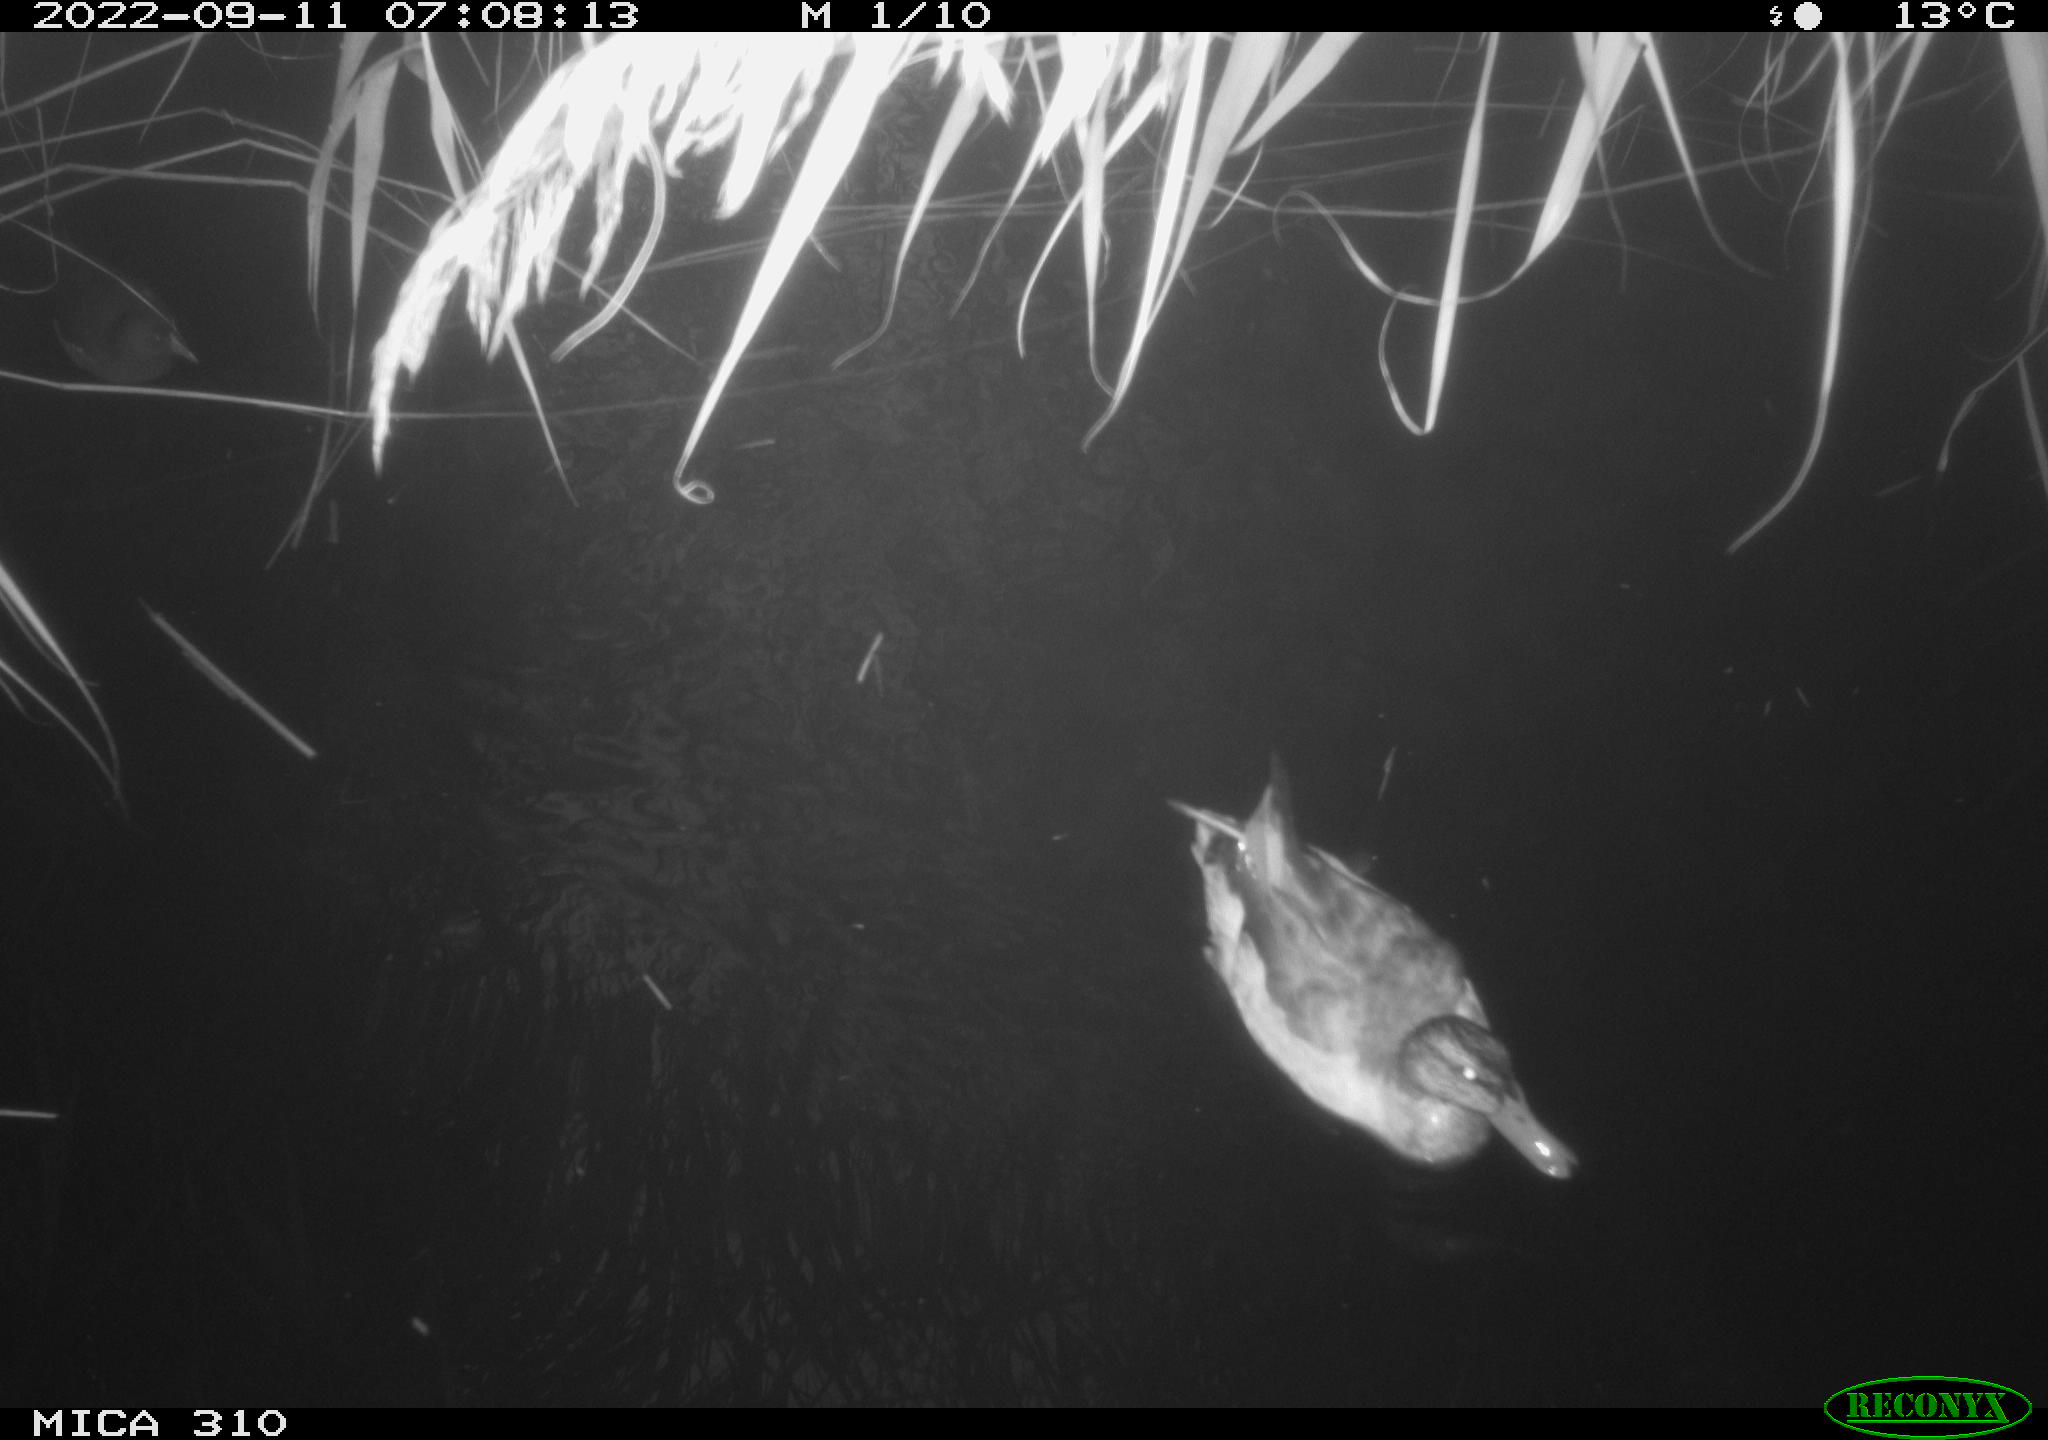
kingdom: Animalia
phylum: Chordata
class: Aves
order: Anseriformes
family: Anatidae
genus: Anas
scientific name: Anas
